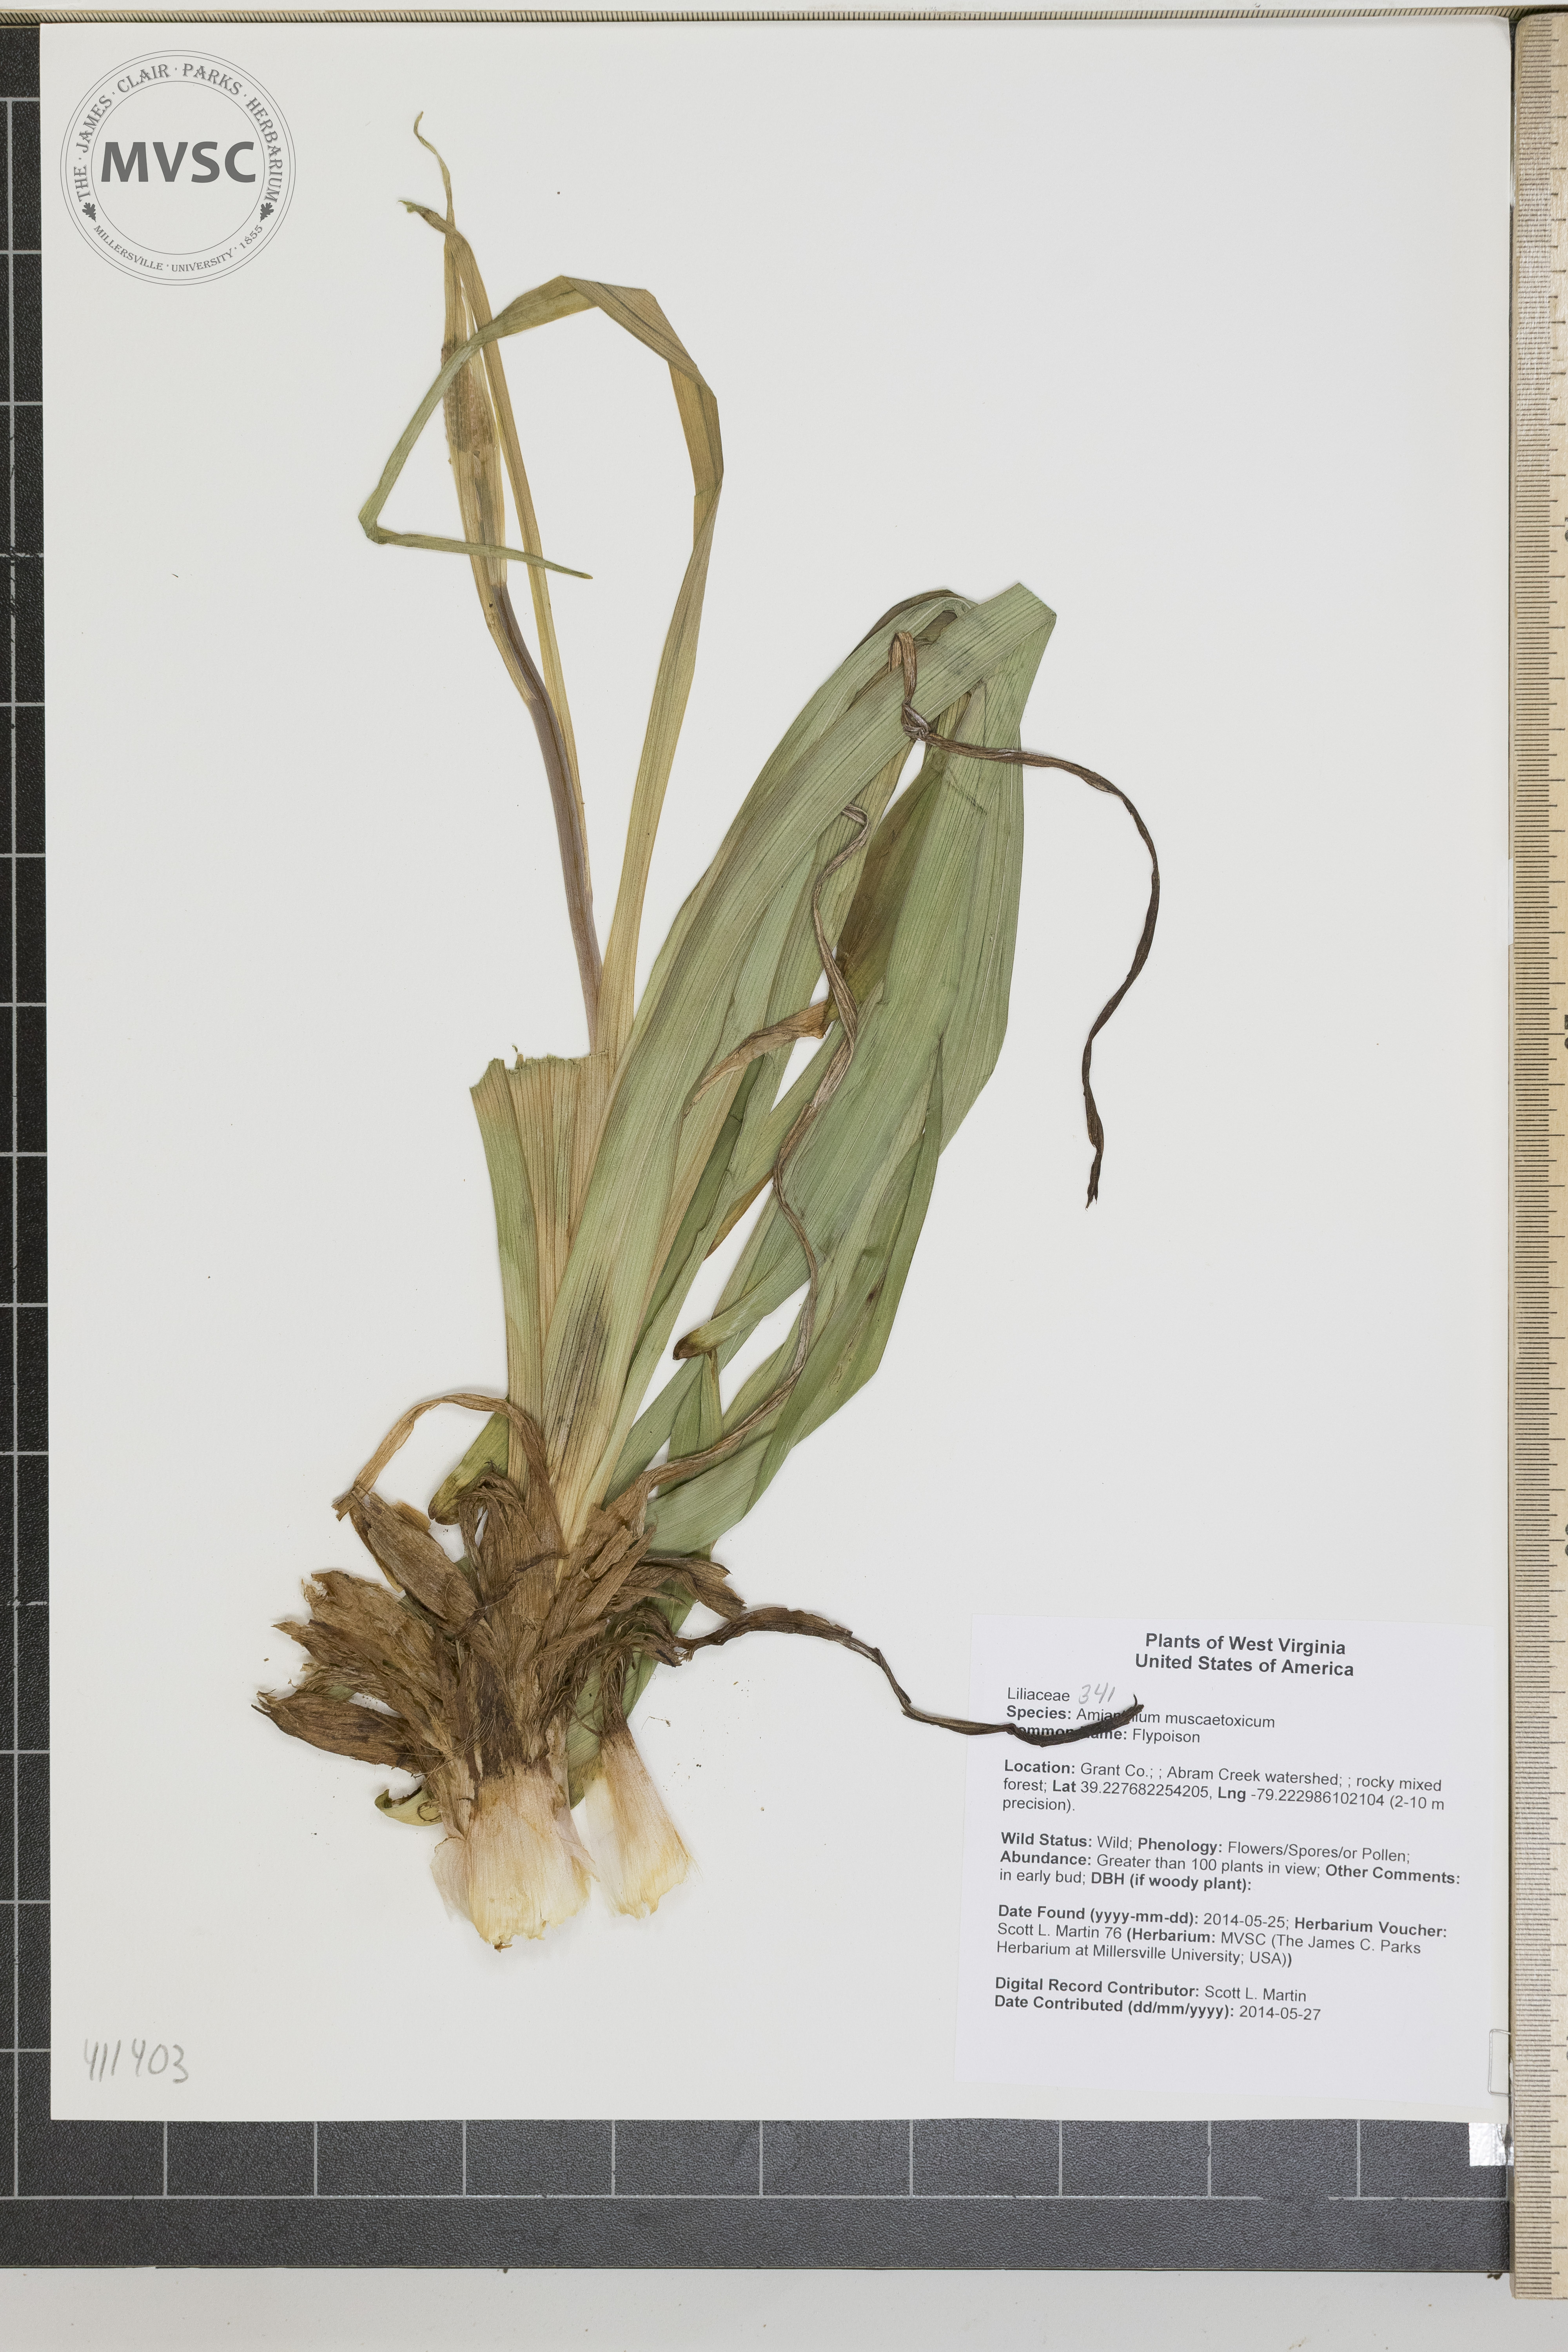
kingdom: Plantae
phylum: Tracheophyta
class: Liliopsida
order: Liliales
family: Melanthiaceae
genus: Amianthium
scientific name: Amianthium muscitoxicum
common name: Flypoison
